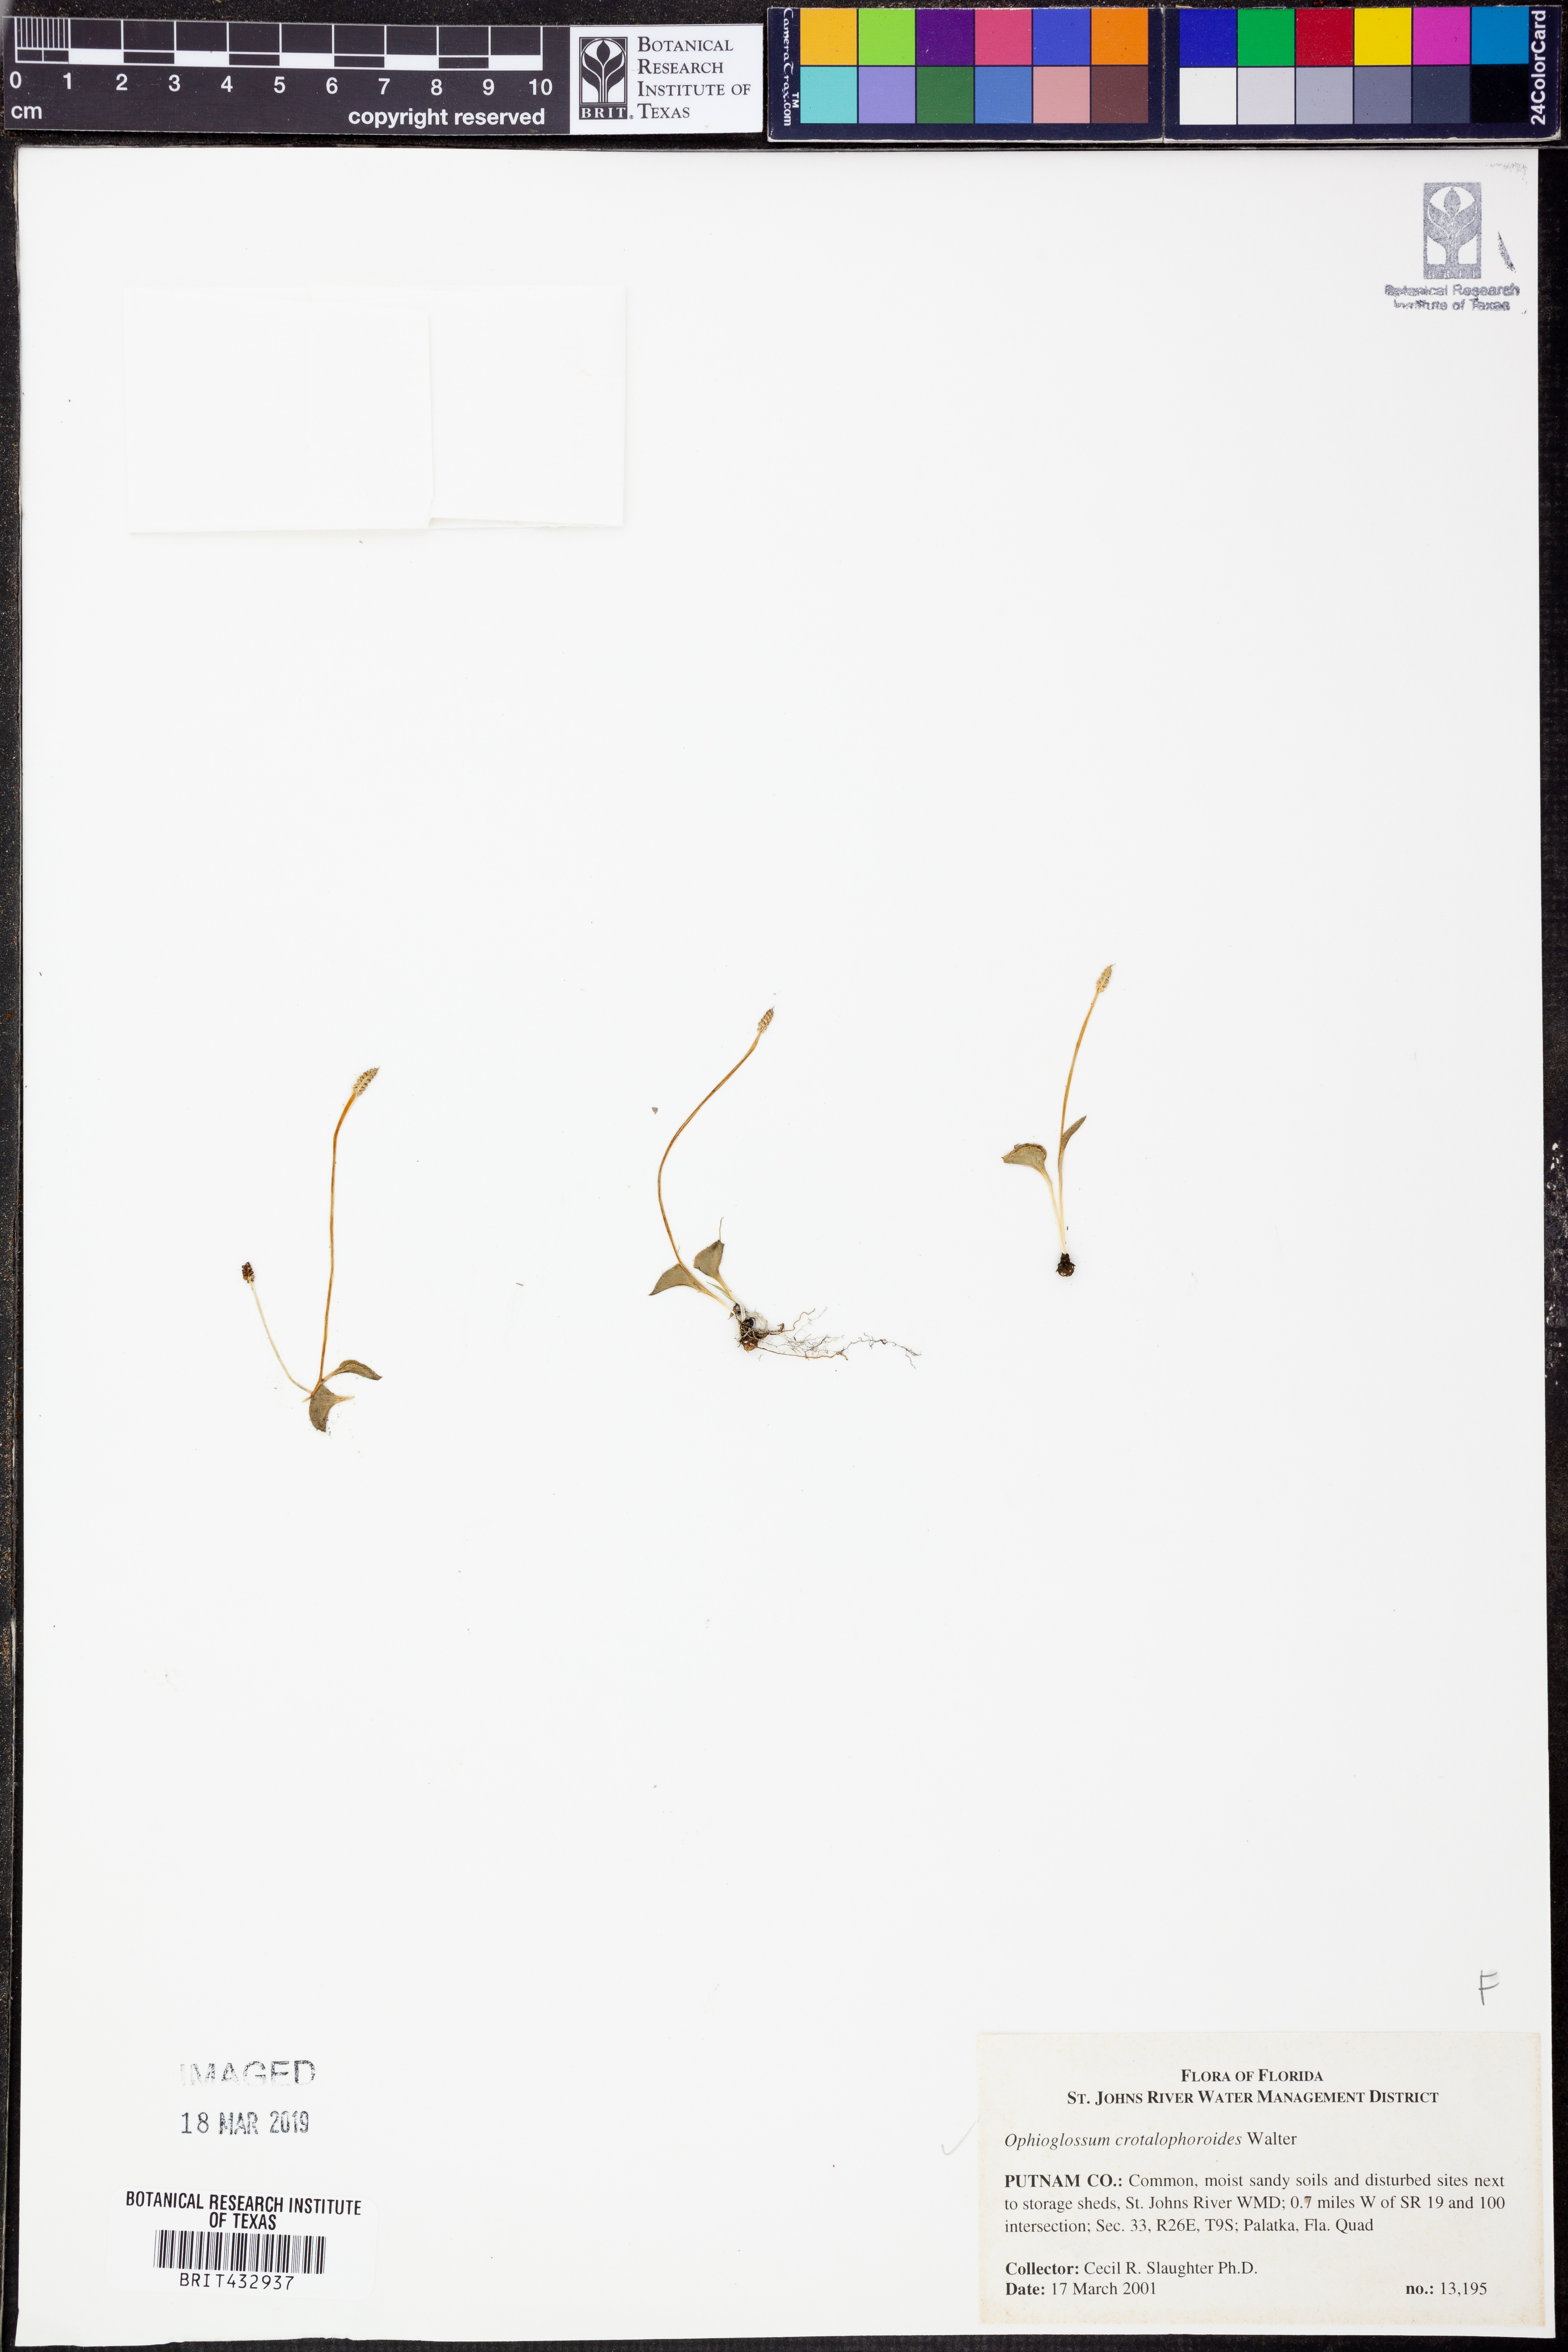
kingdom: Plantae
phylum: Tracheophyta
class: Polypodiopsida
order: Ophioglossales
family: Ophioglossaceae
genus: Ophioglossum
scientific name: Ophioglossum crotalophoroides
